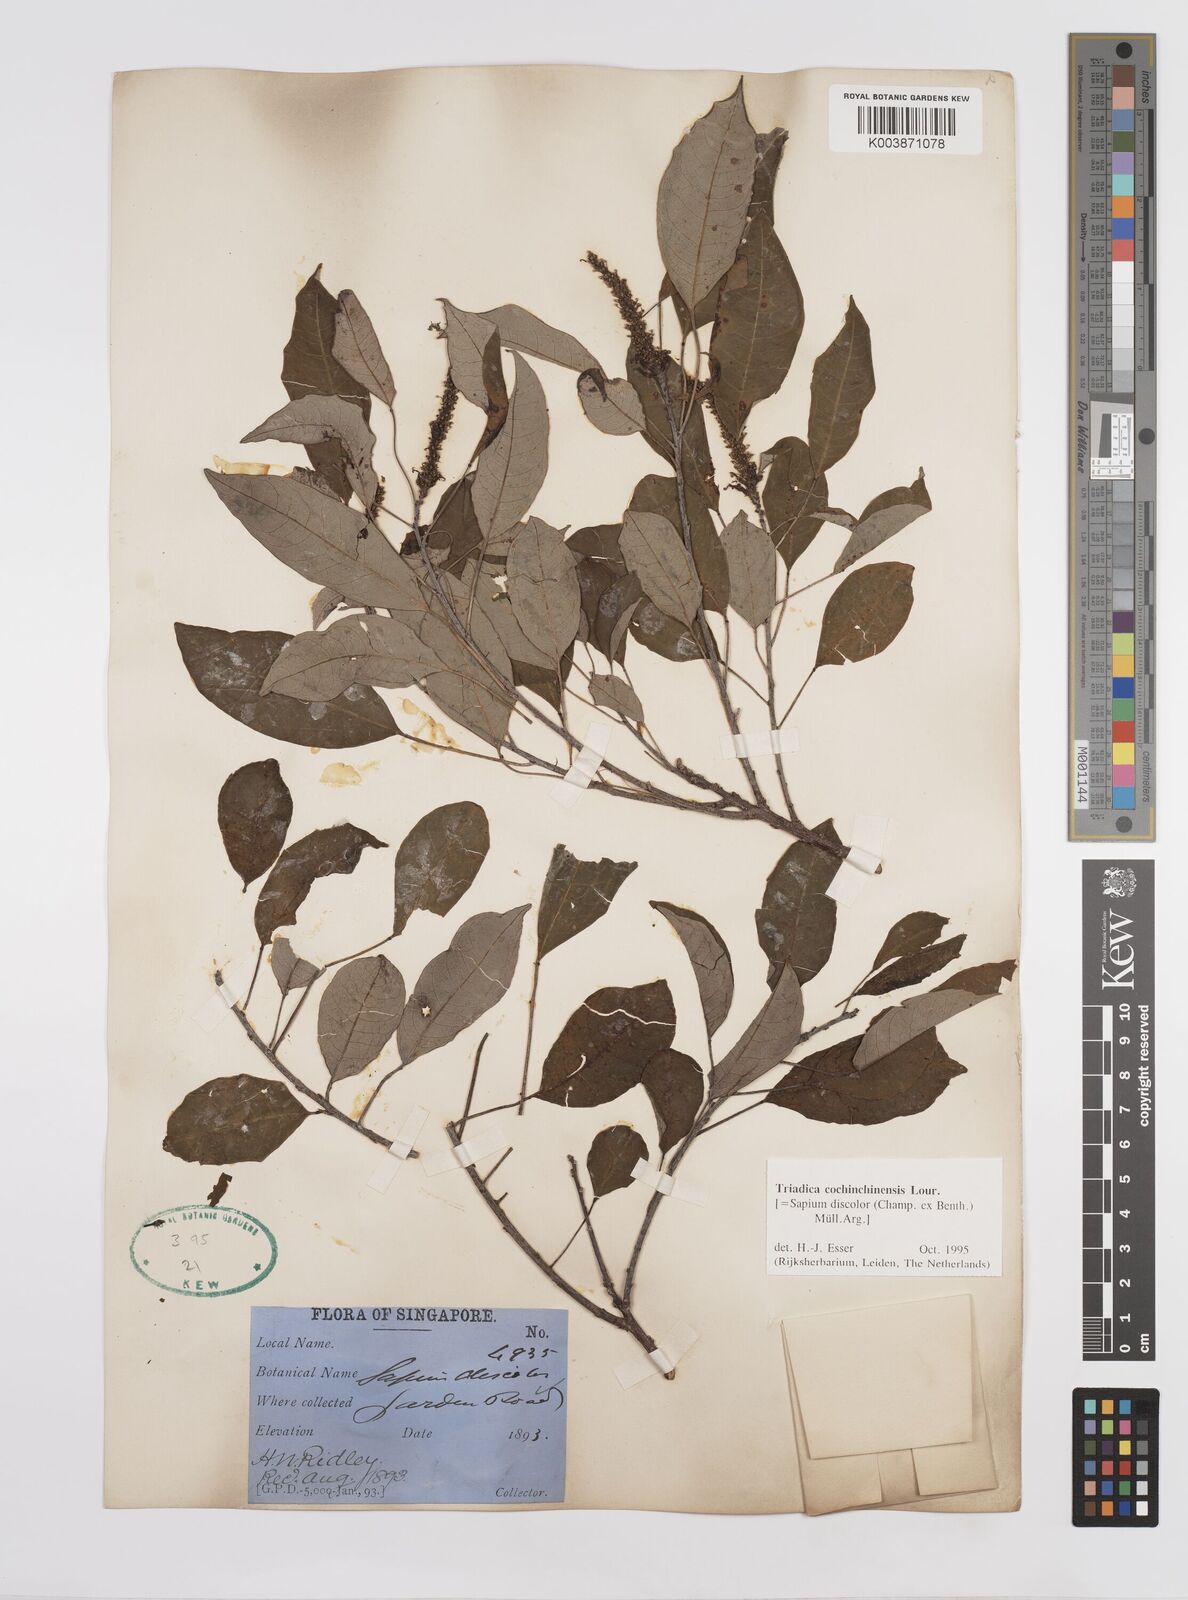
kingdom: Plantae
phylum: Tracheophyta
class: Magnoliopsida
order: Malpighiales
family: Euphorbiaceae
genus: Triadica
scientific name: Triadica cochinchinensis
